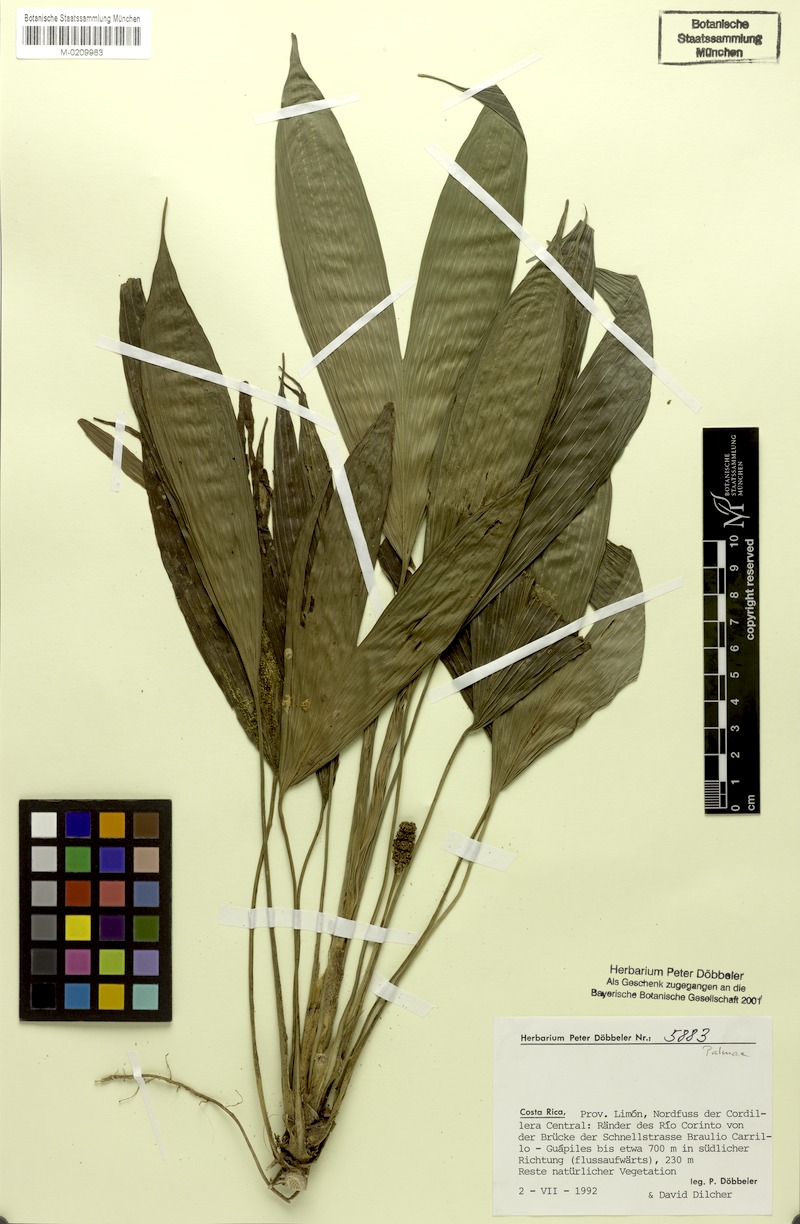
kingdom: Plantae
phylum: Tracheophyta
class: Liliopsida
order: Pandanales
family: Cyclanthaceae
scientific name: Cyclanthaceae
